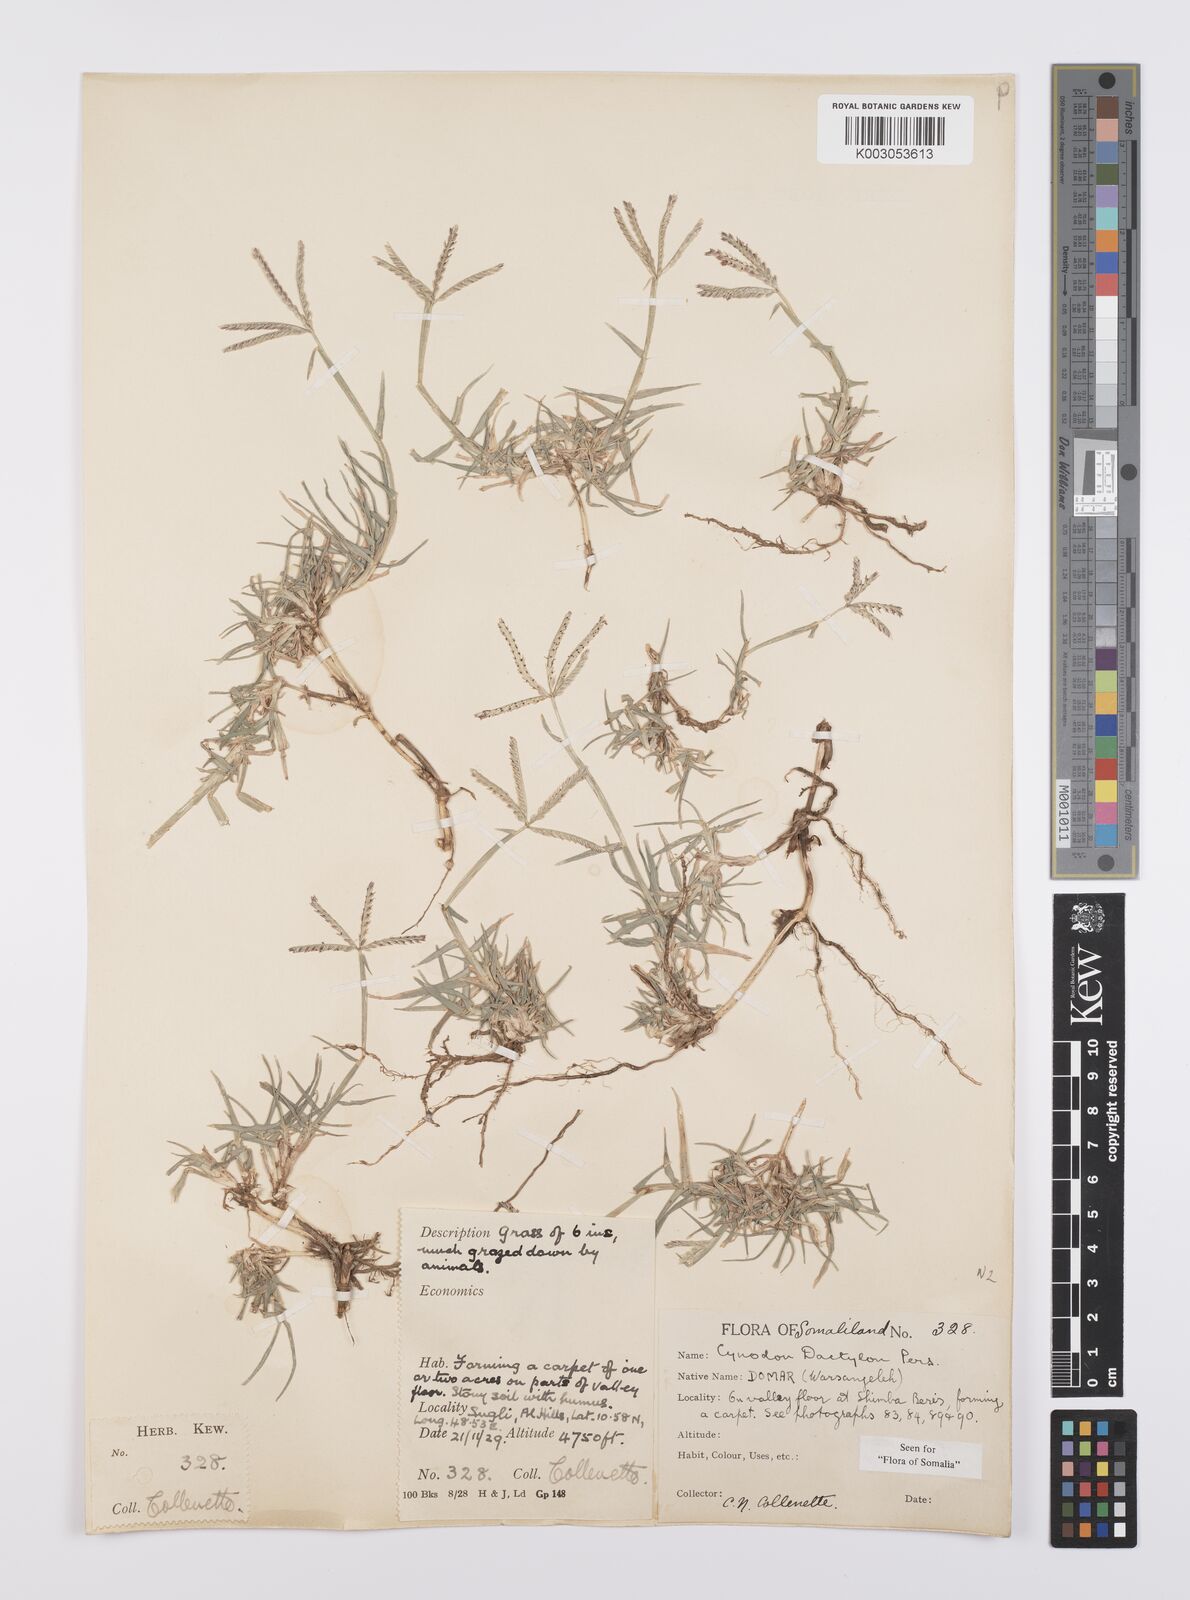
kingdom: Plantae
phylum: Tracheophyta
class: Liliopsida
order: Poales
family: Poaceae
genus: Cynodon
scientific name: Cynodon dactylon
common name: Bermuda grass
